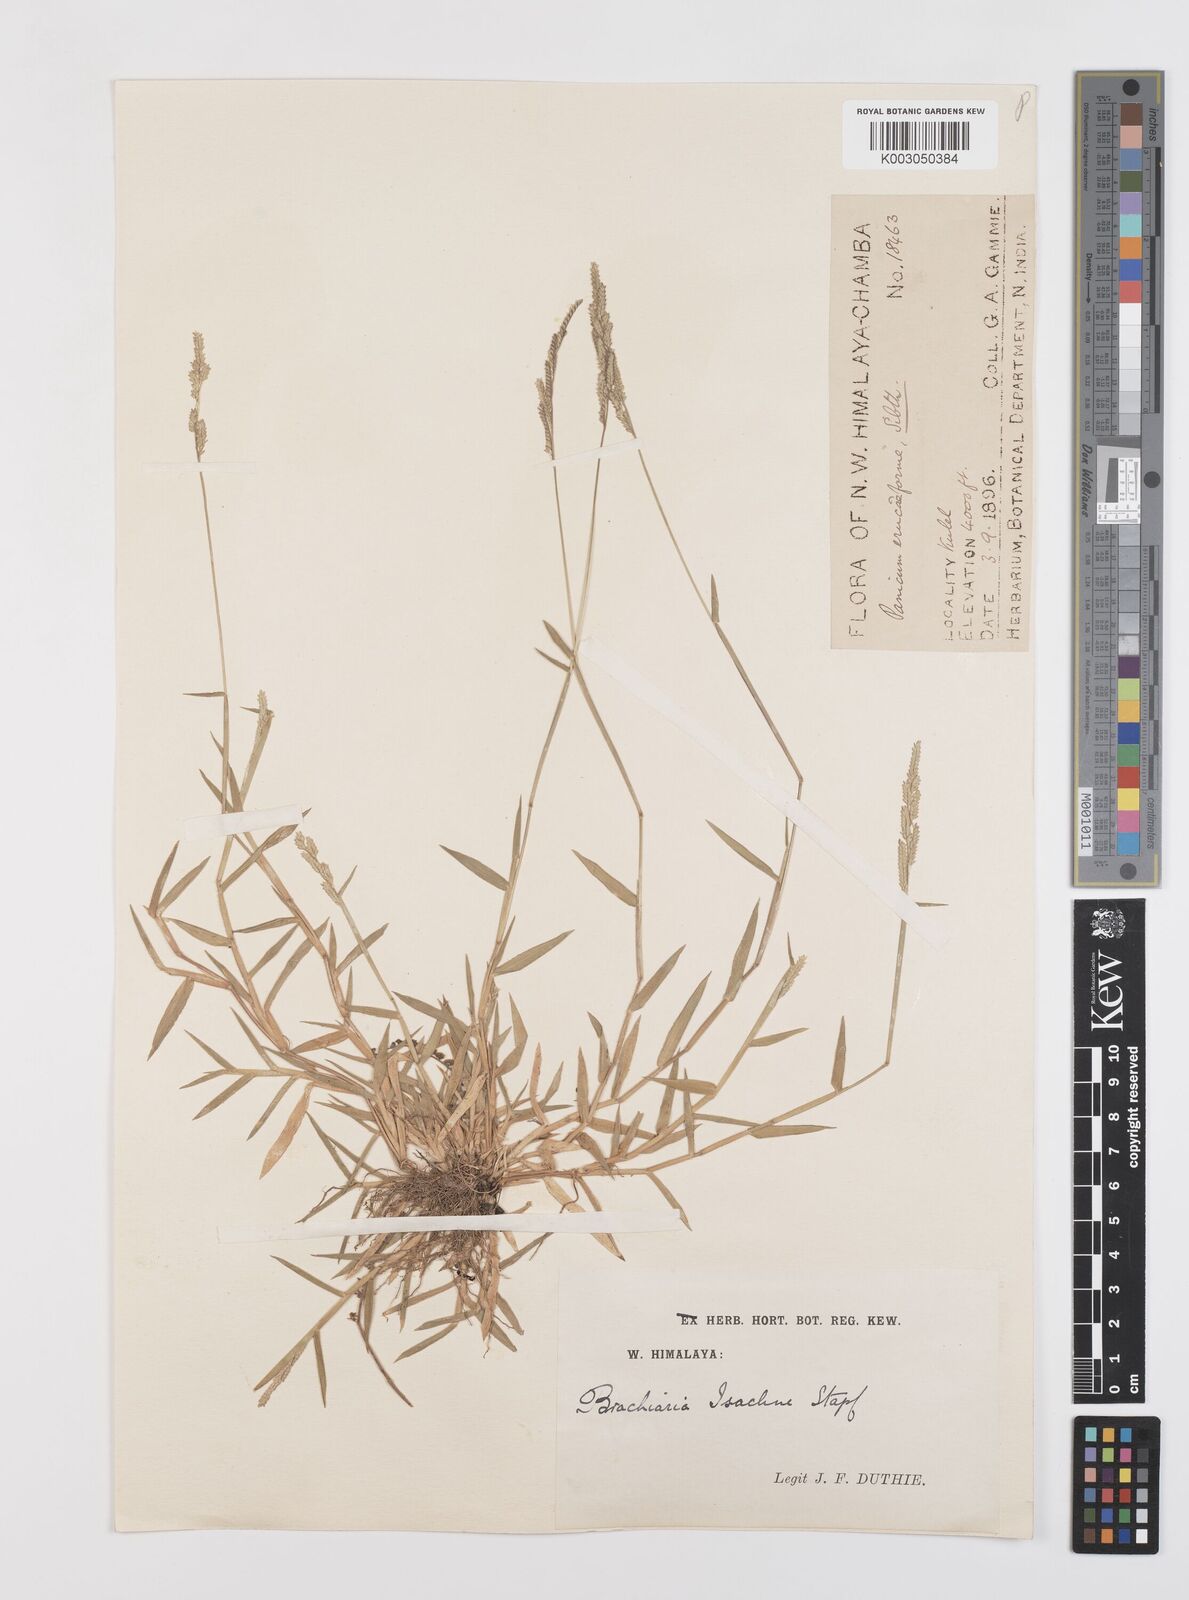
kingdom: Plantae
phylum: Tracheophyta
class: Liliopsida
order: Poales
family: Poaceae
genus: Moorochloa
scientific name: Moorochloa eruciformis
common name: Sweet signalgrass
